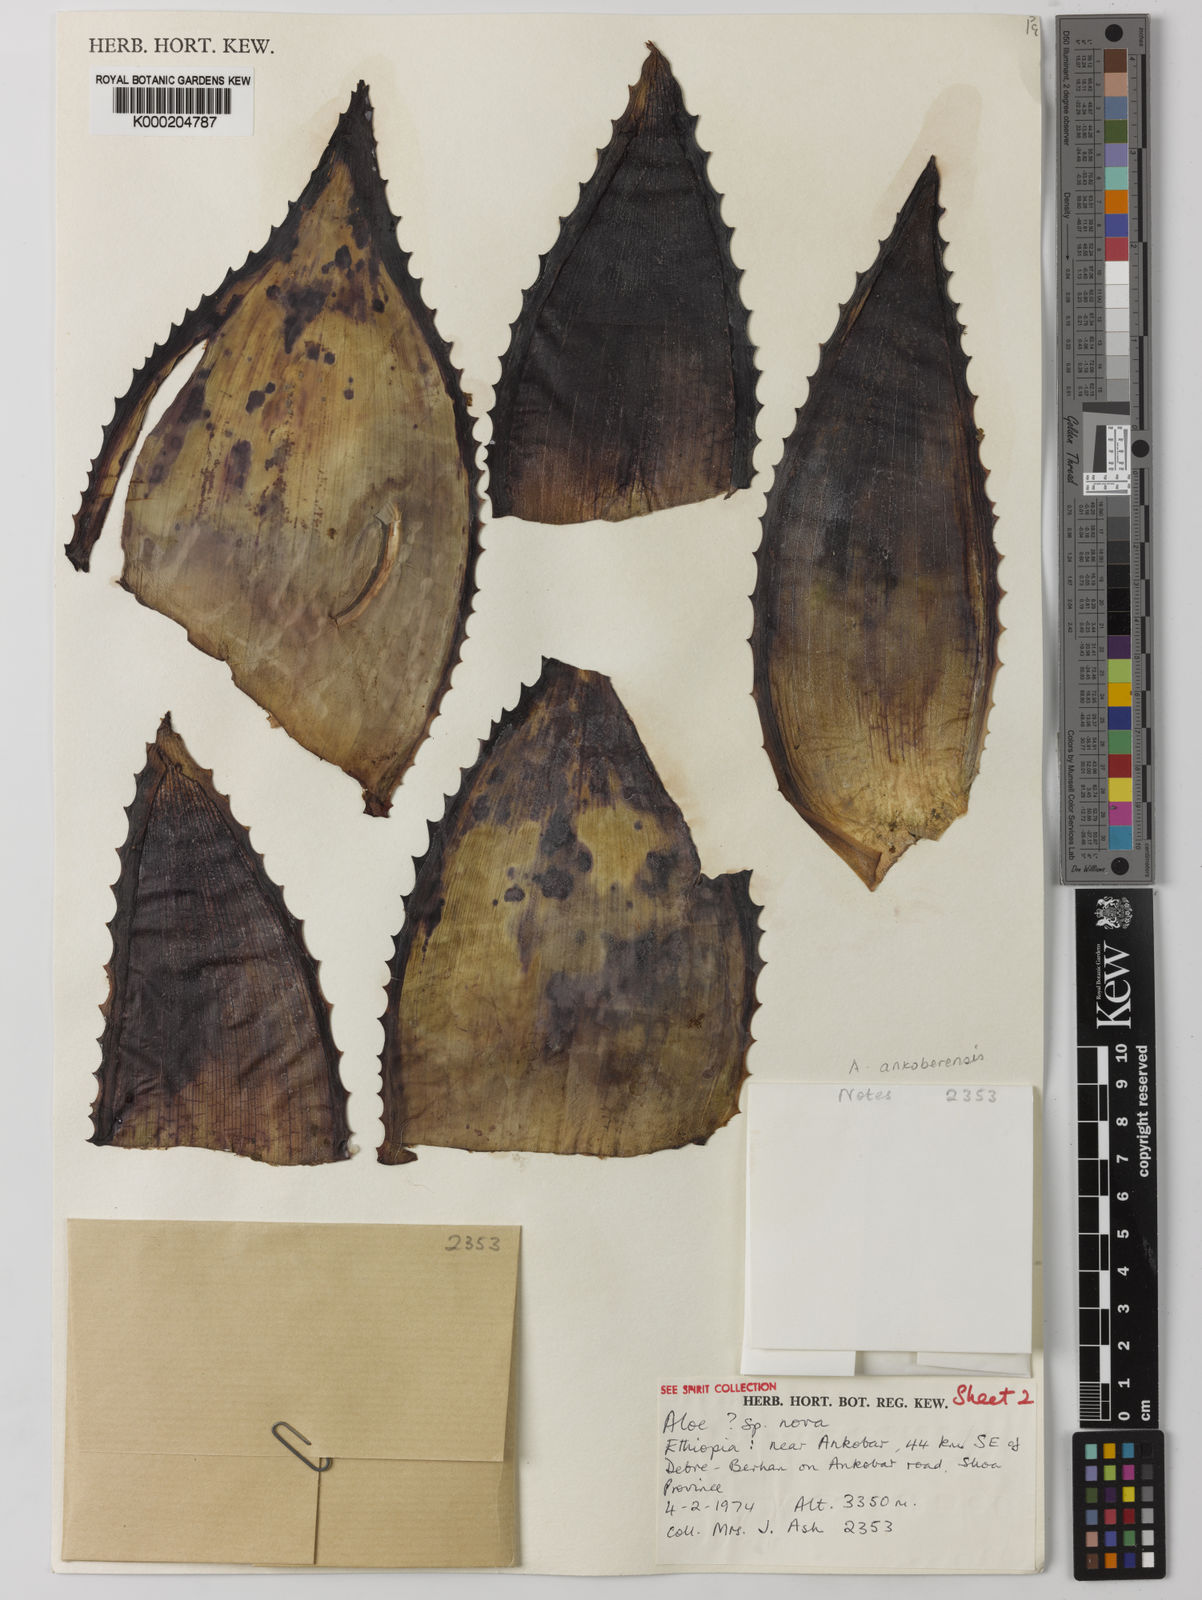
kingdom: Plantae
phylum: Tracheophyta
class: Liliopsida
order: Asparagales
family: Asphodelaceae
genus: Aloe
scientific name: Aloe ankoberensis
